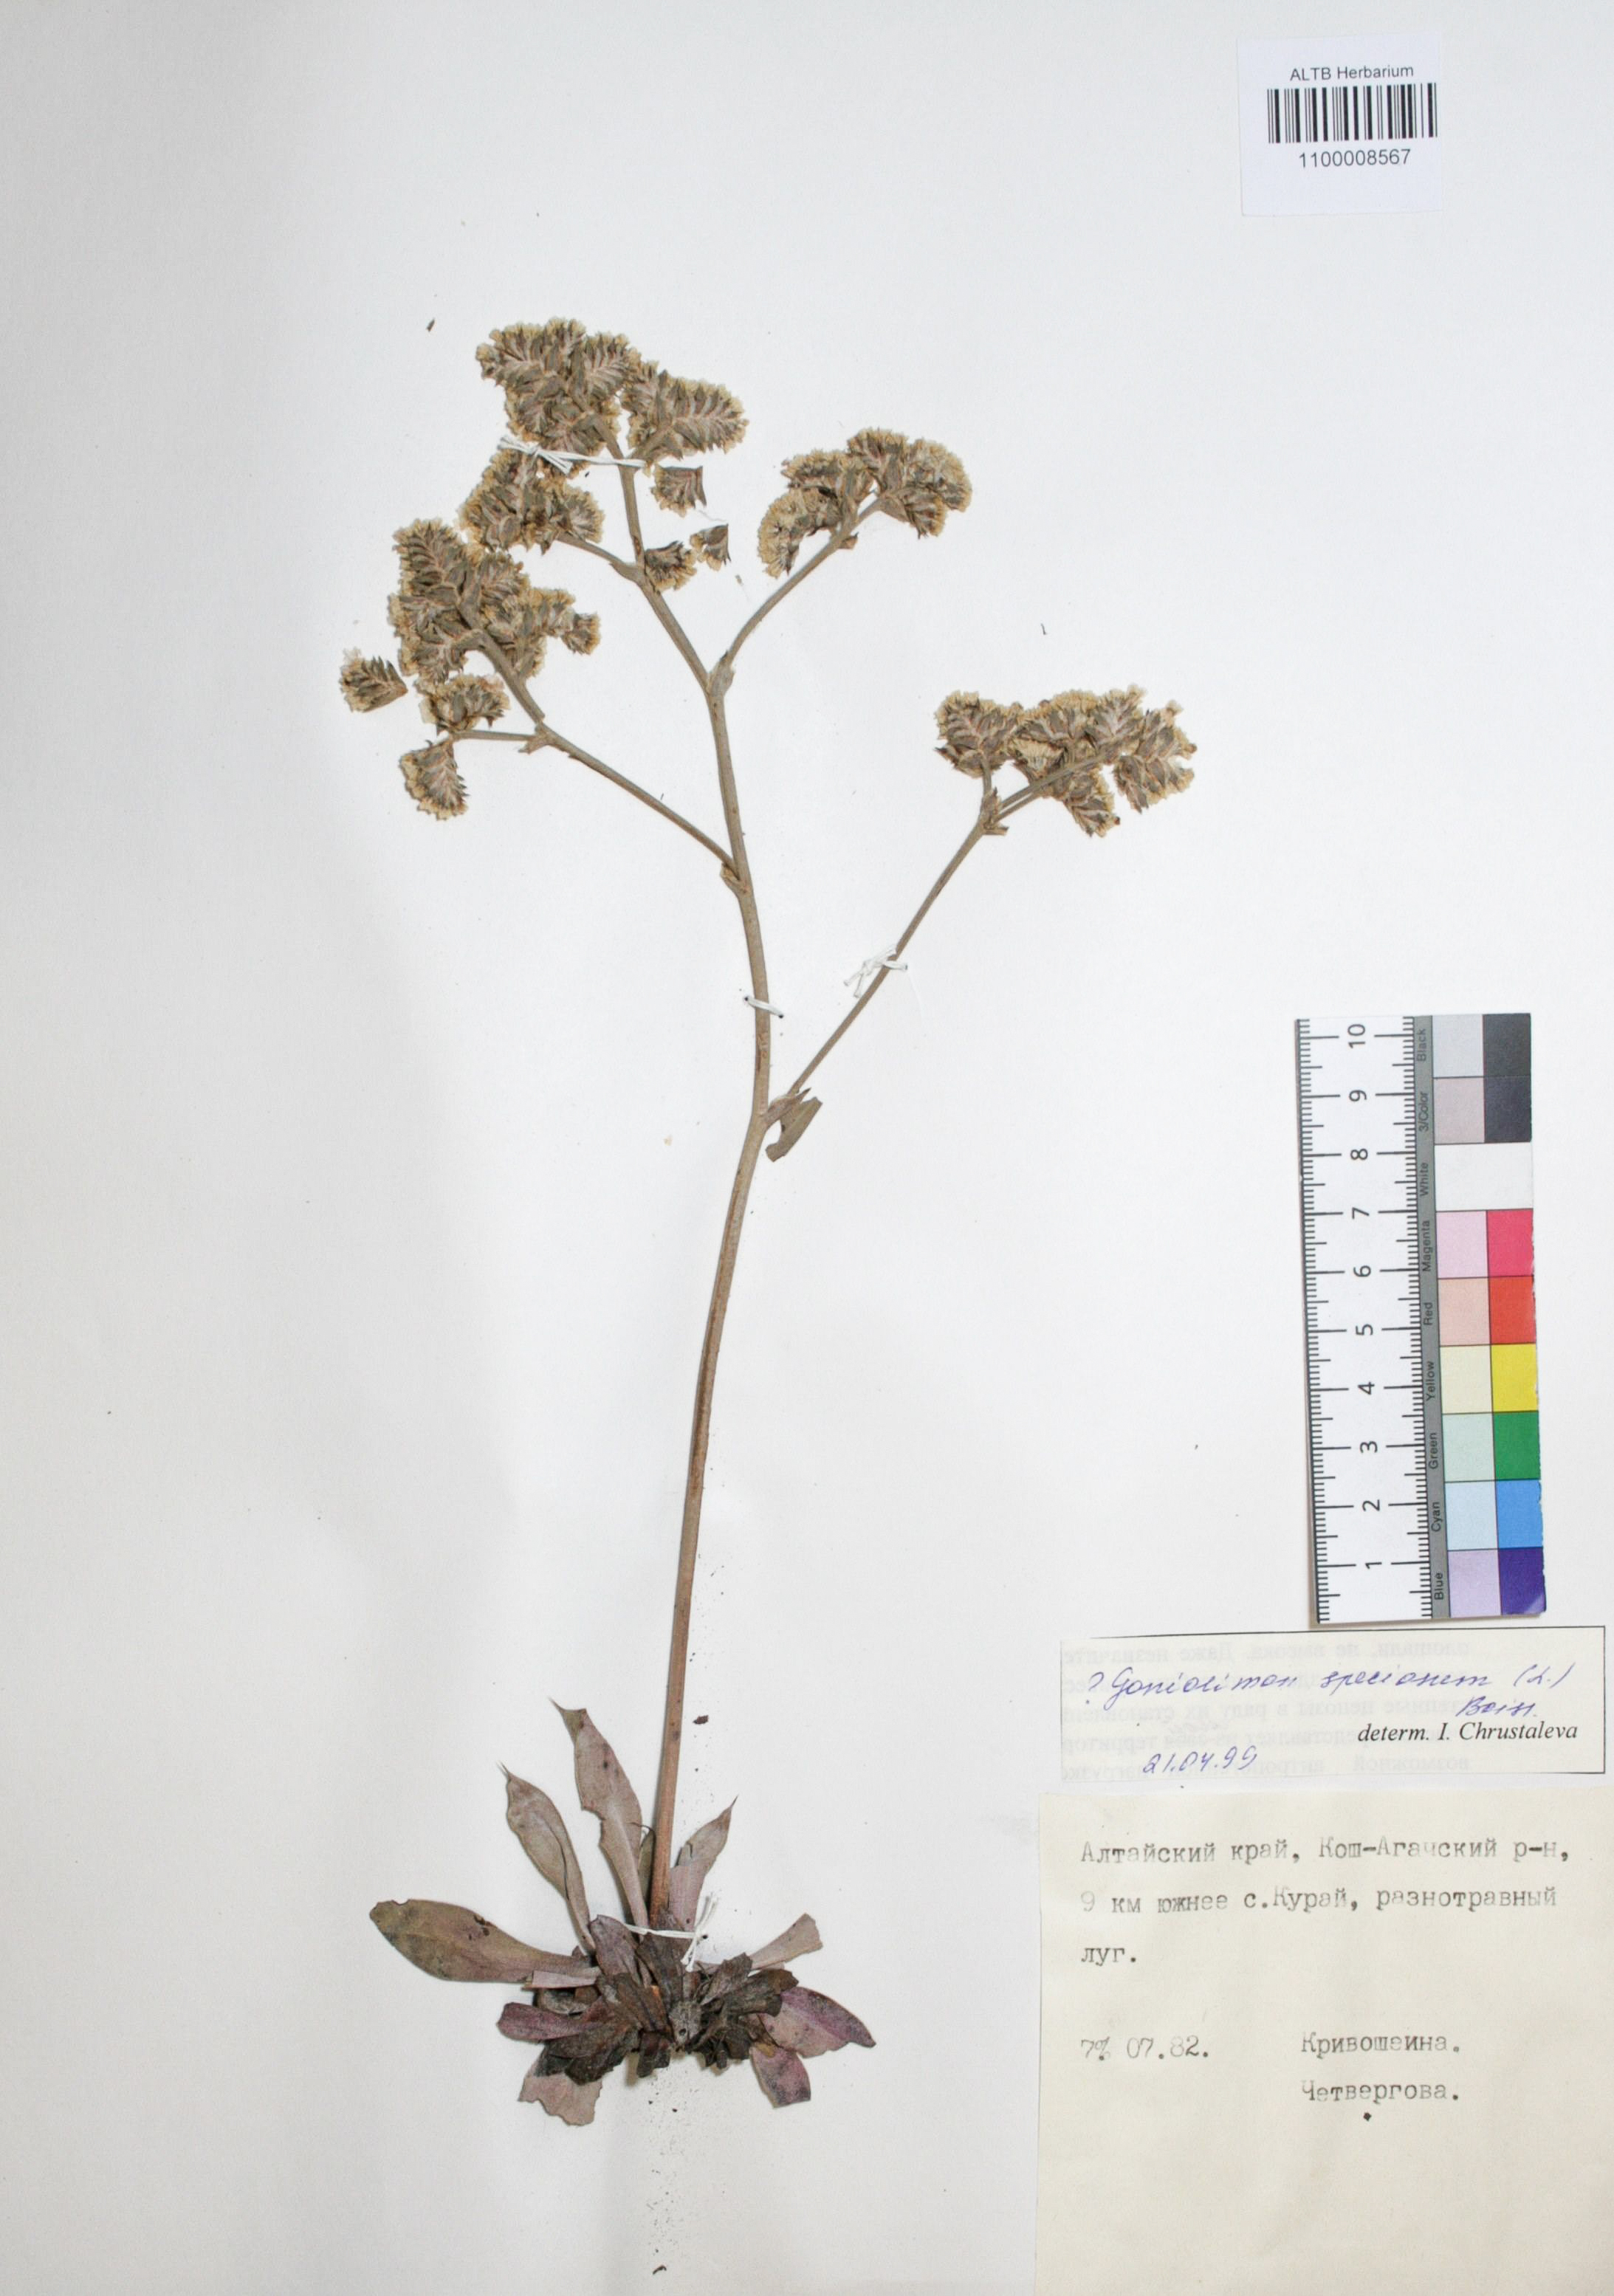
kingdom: Plantae
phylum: Tracheophyta
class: Magnoliopsida
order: Caryophyllales
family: Plumbaginaceae
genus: Goniolimon
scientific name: Goniolimon speciosum
